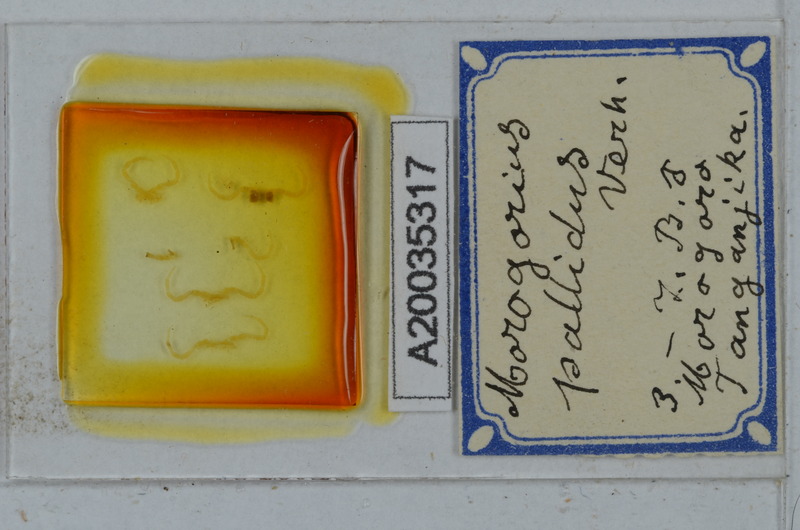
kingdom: Animalia
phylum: Arthropoda
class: Diplopoda
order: Polydesmida
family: Chelodesmidae
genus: Morogorius
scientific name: Morogorius pallidus
